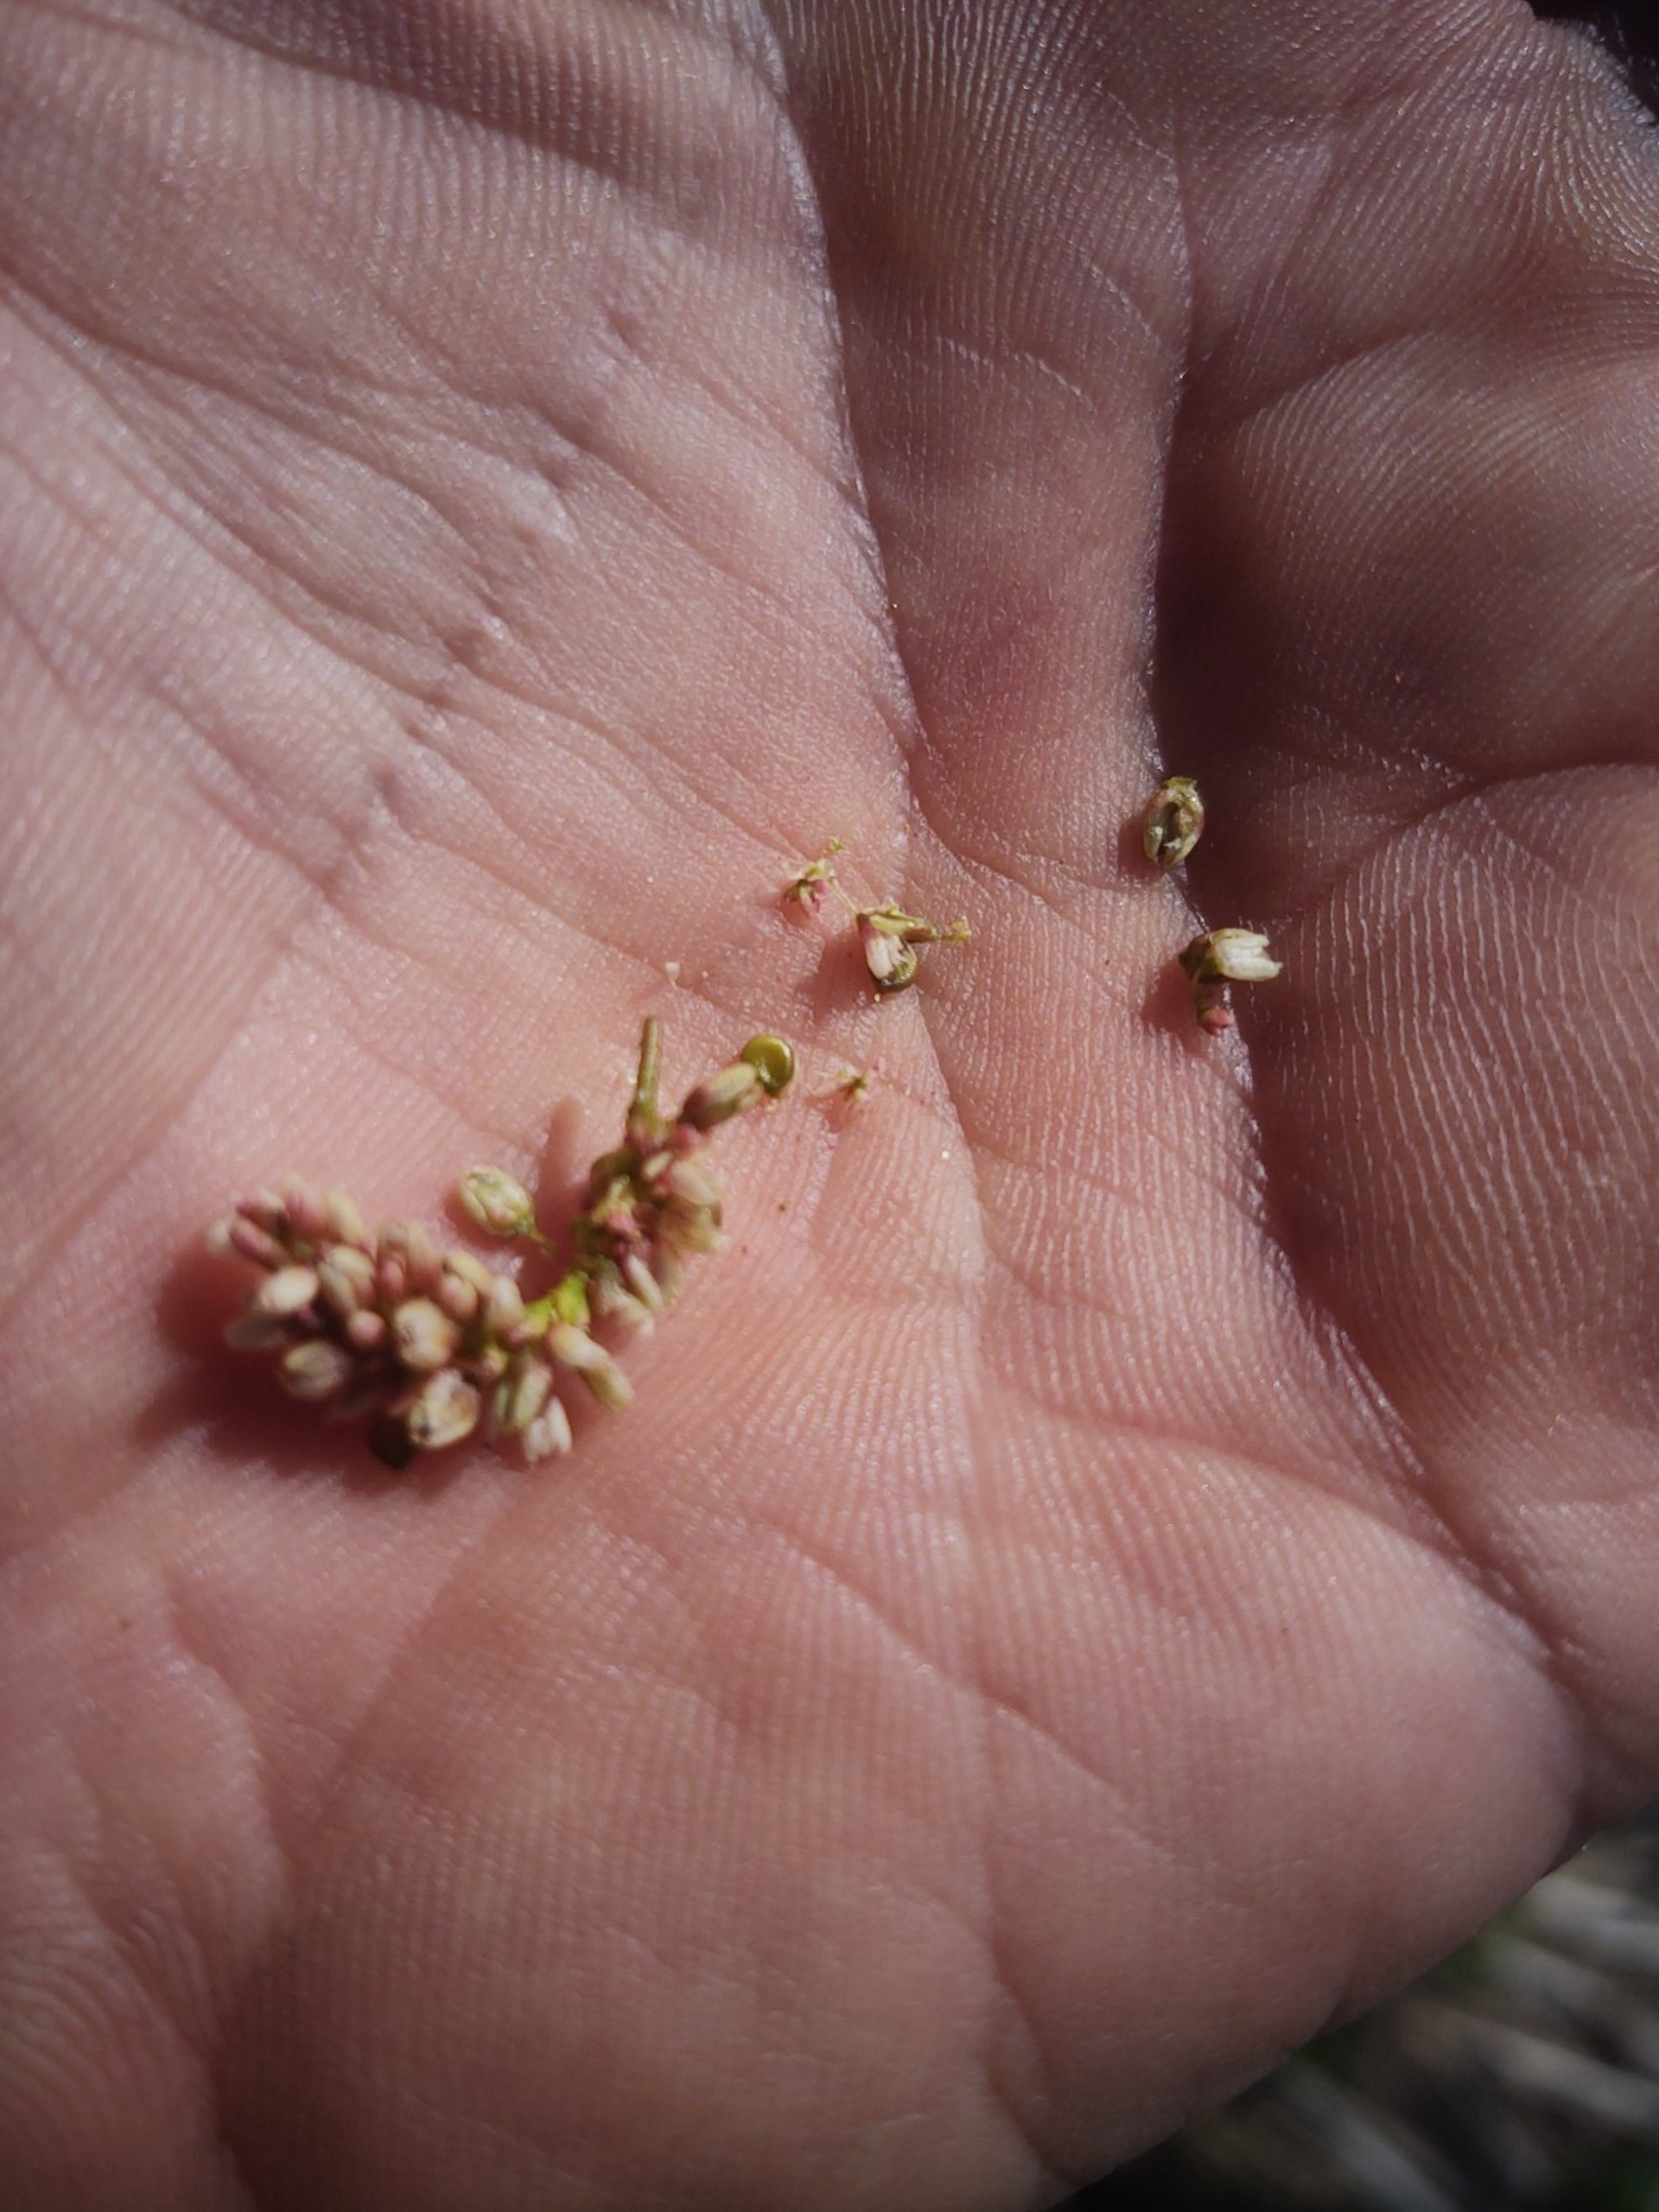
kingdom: Plantae
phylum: Tracheophyta
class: Magnoliopsida
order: Caryophyllales
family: Polygonaceae
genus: Persicaria
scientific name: Persicaria lapathifolia
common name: Knudet pileurt (underart)
